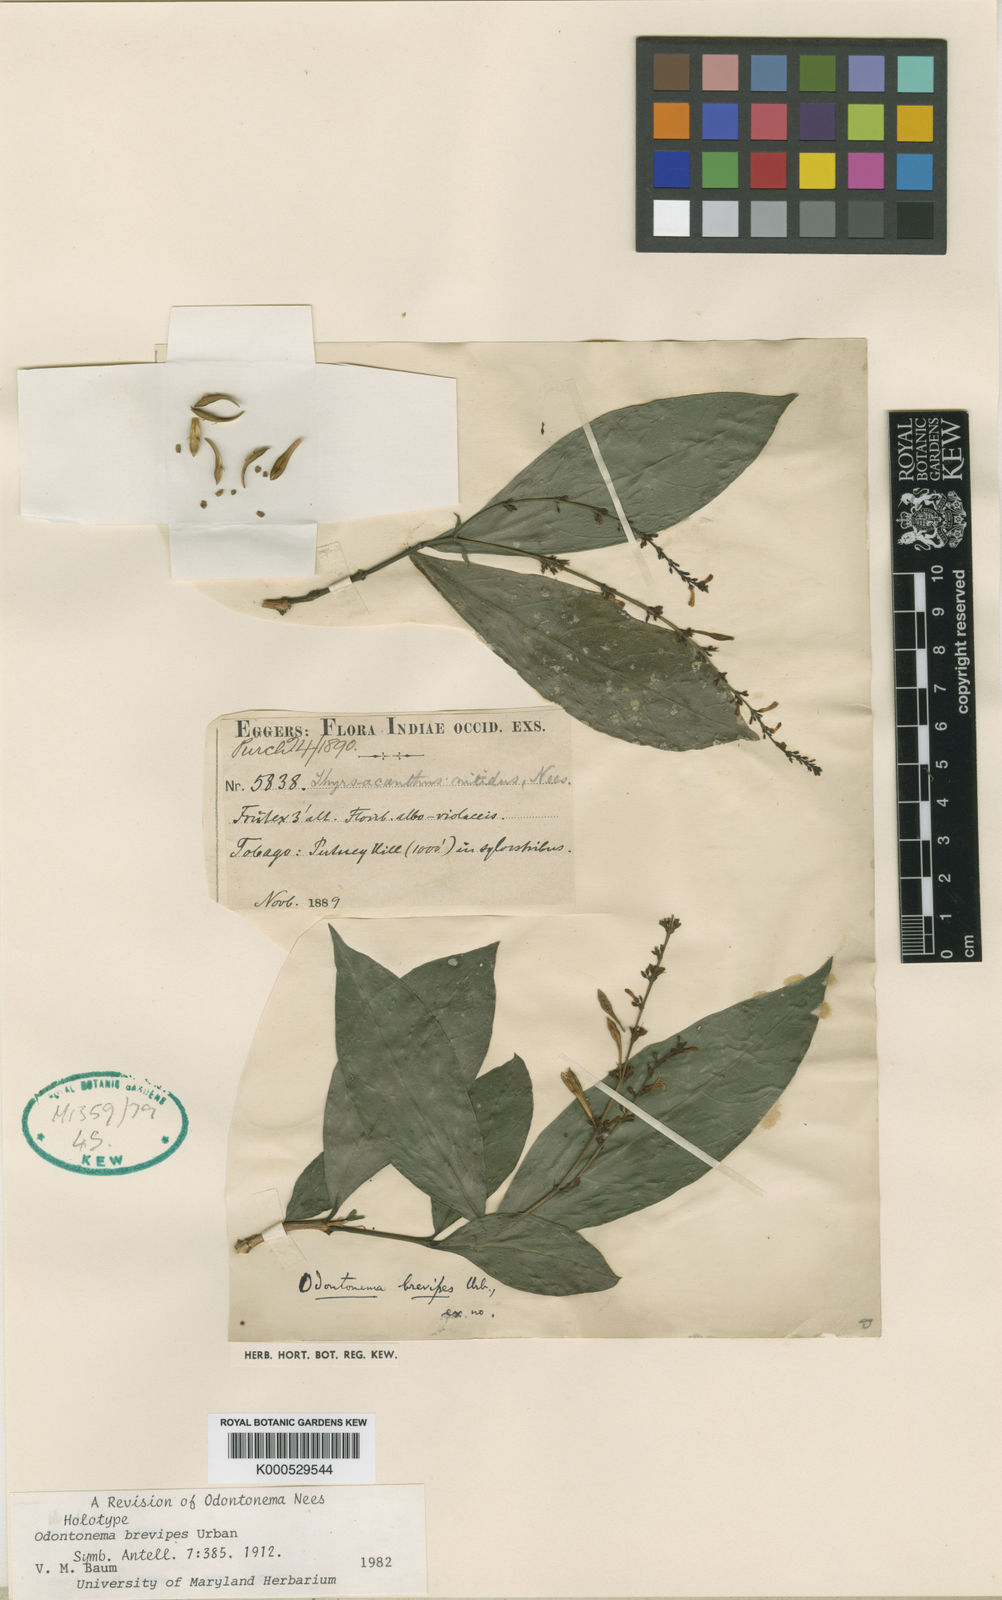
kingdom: Plantae
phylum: Tracheophyta
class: Magnoliopsida
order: Lamiales
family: Acanthaceae
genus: Odontonema
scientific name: Odontonema brevipes
